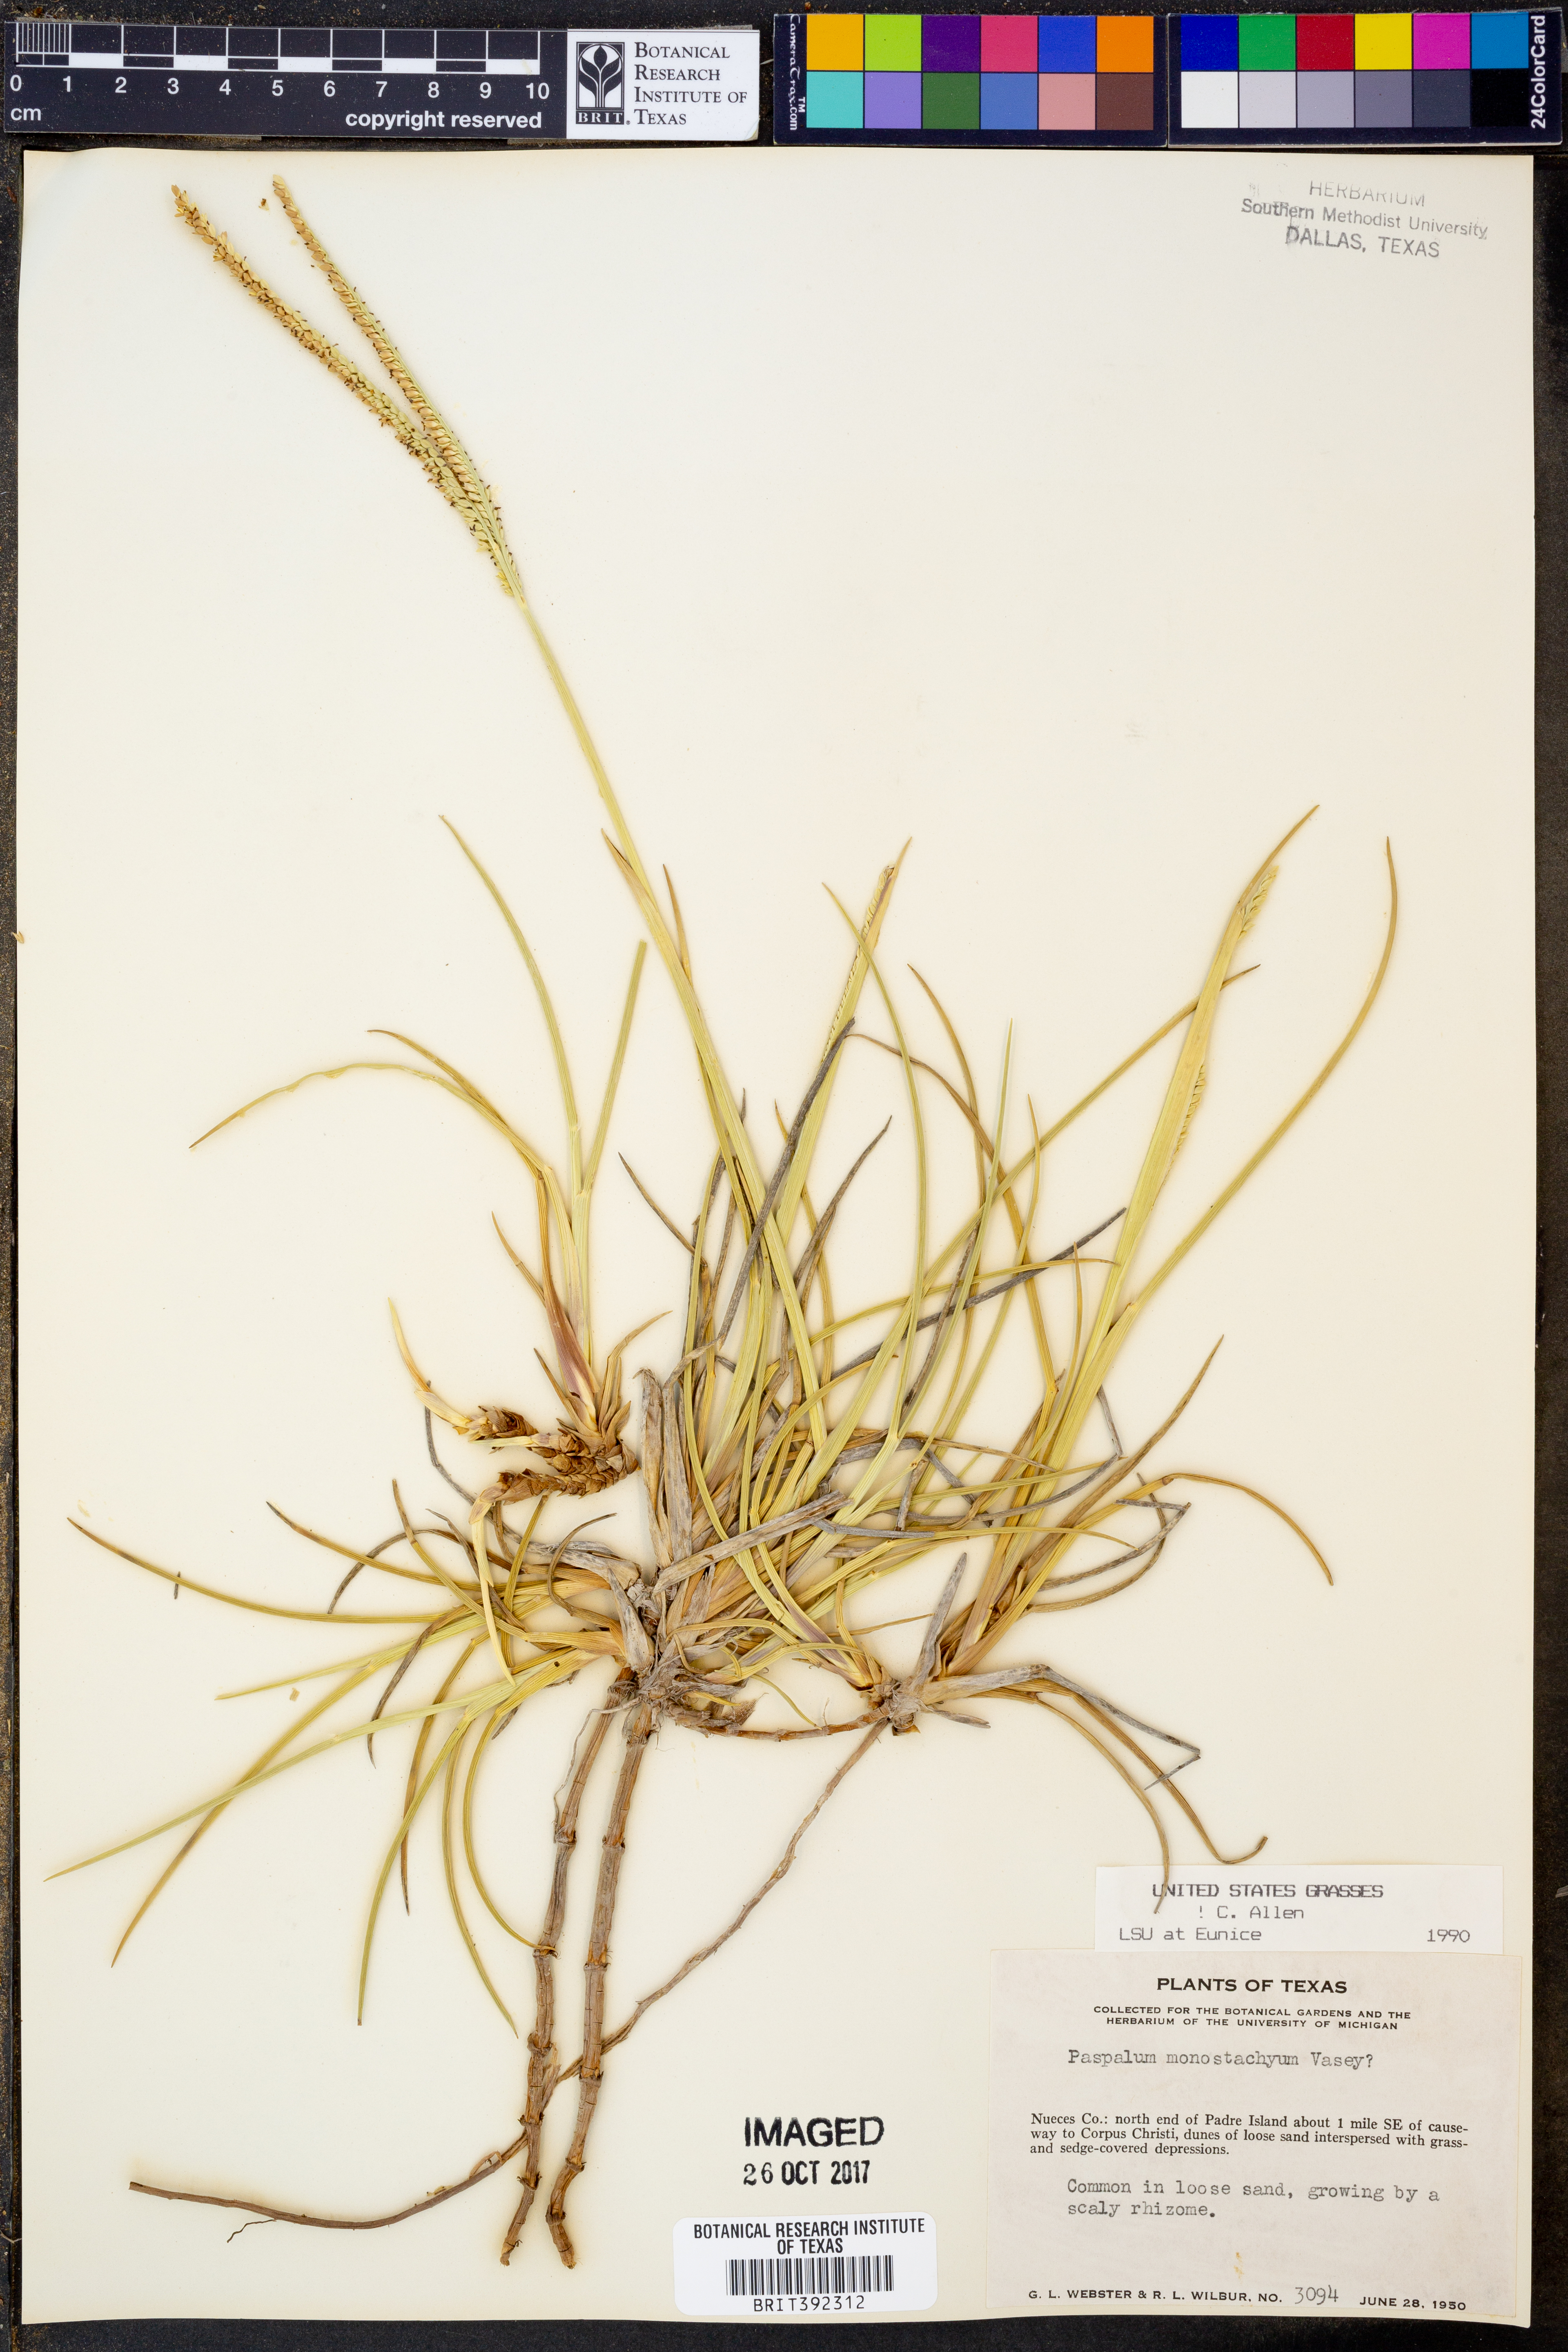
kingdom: Plantae
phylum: Tracheophyta
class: Liliopsida
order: Poales
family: Poaceae
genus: Paspalum
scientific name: Paspalum monostachyum
